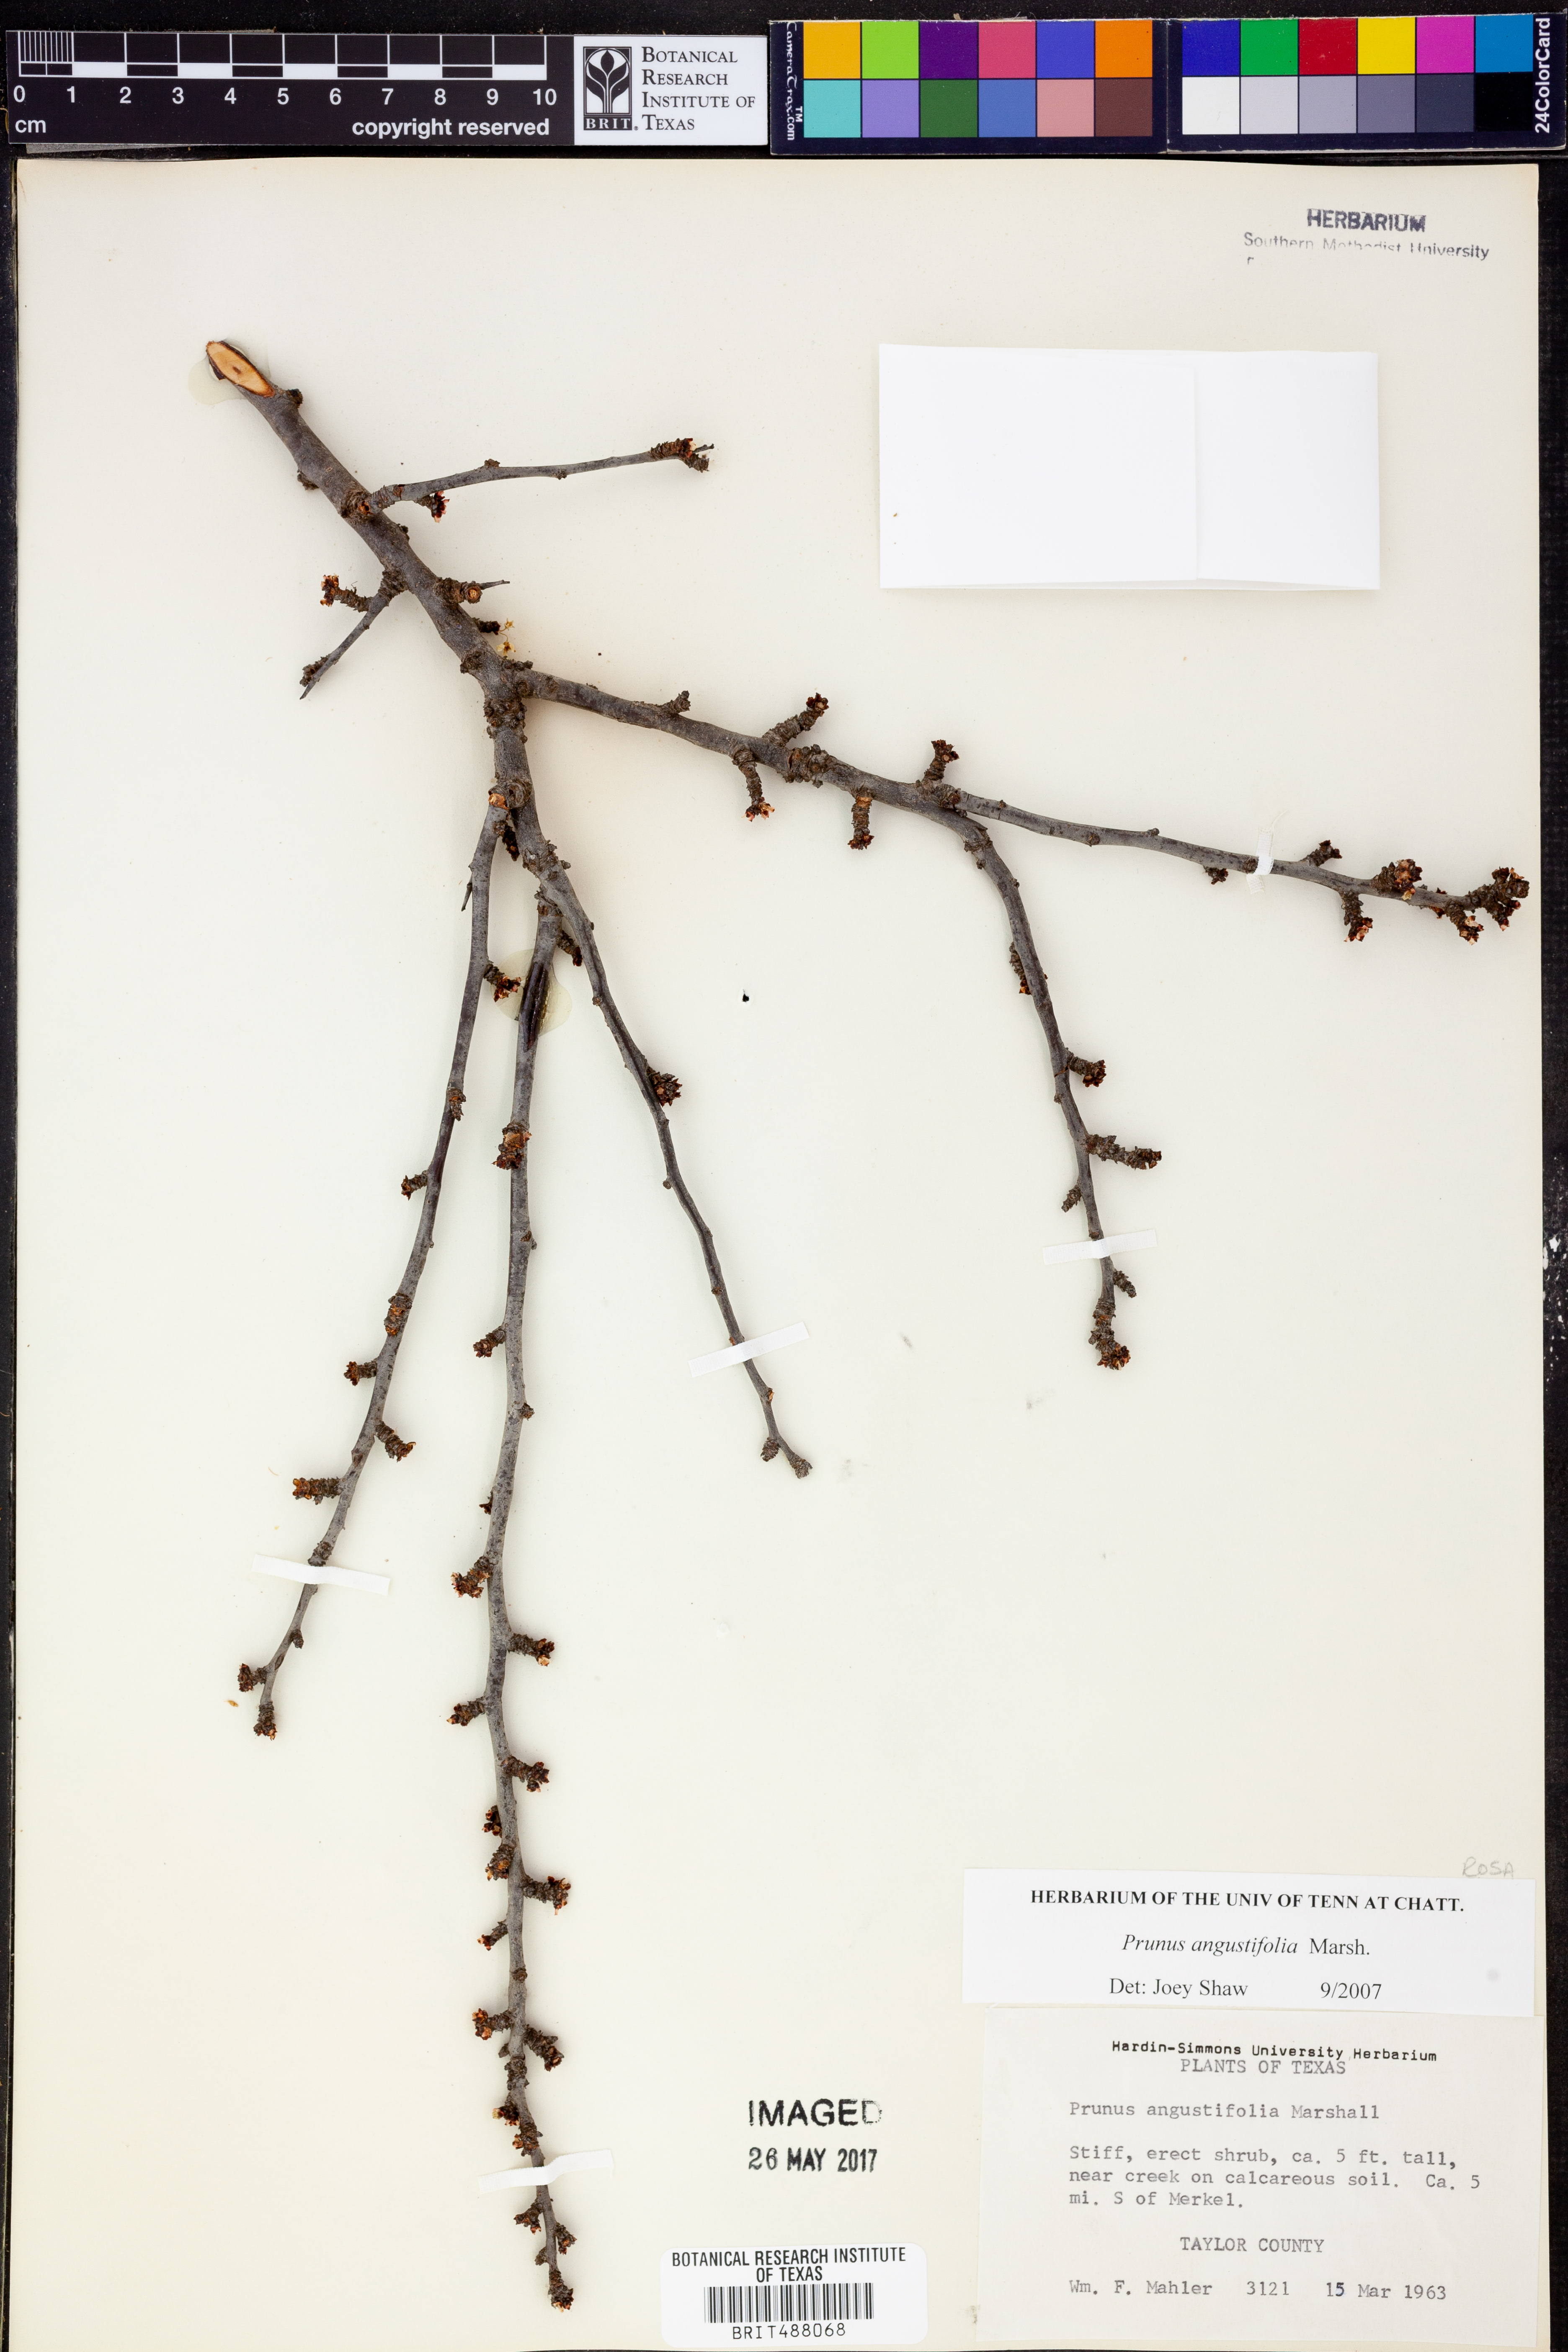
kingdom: Plantae
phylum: Tracheophyta
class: Magnoliopsida
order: Rosales
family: Rosaceae
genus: Prunus
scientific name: Prunus angustifolia
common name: Cherokee plum
